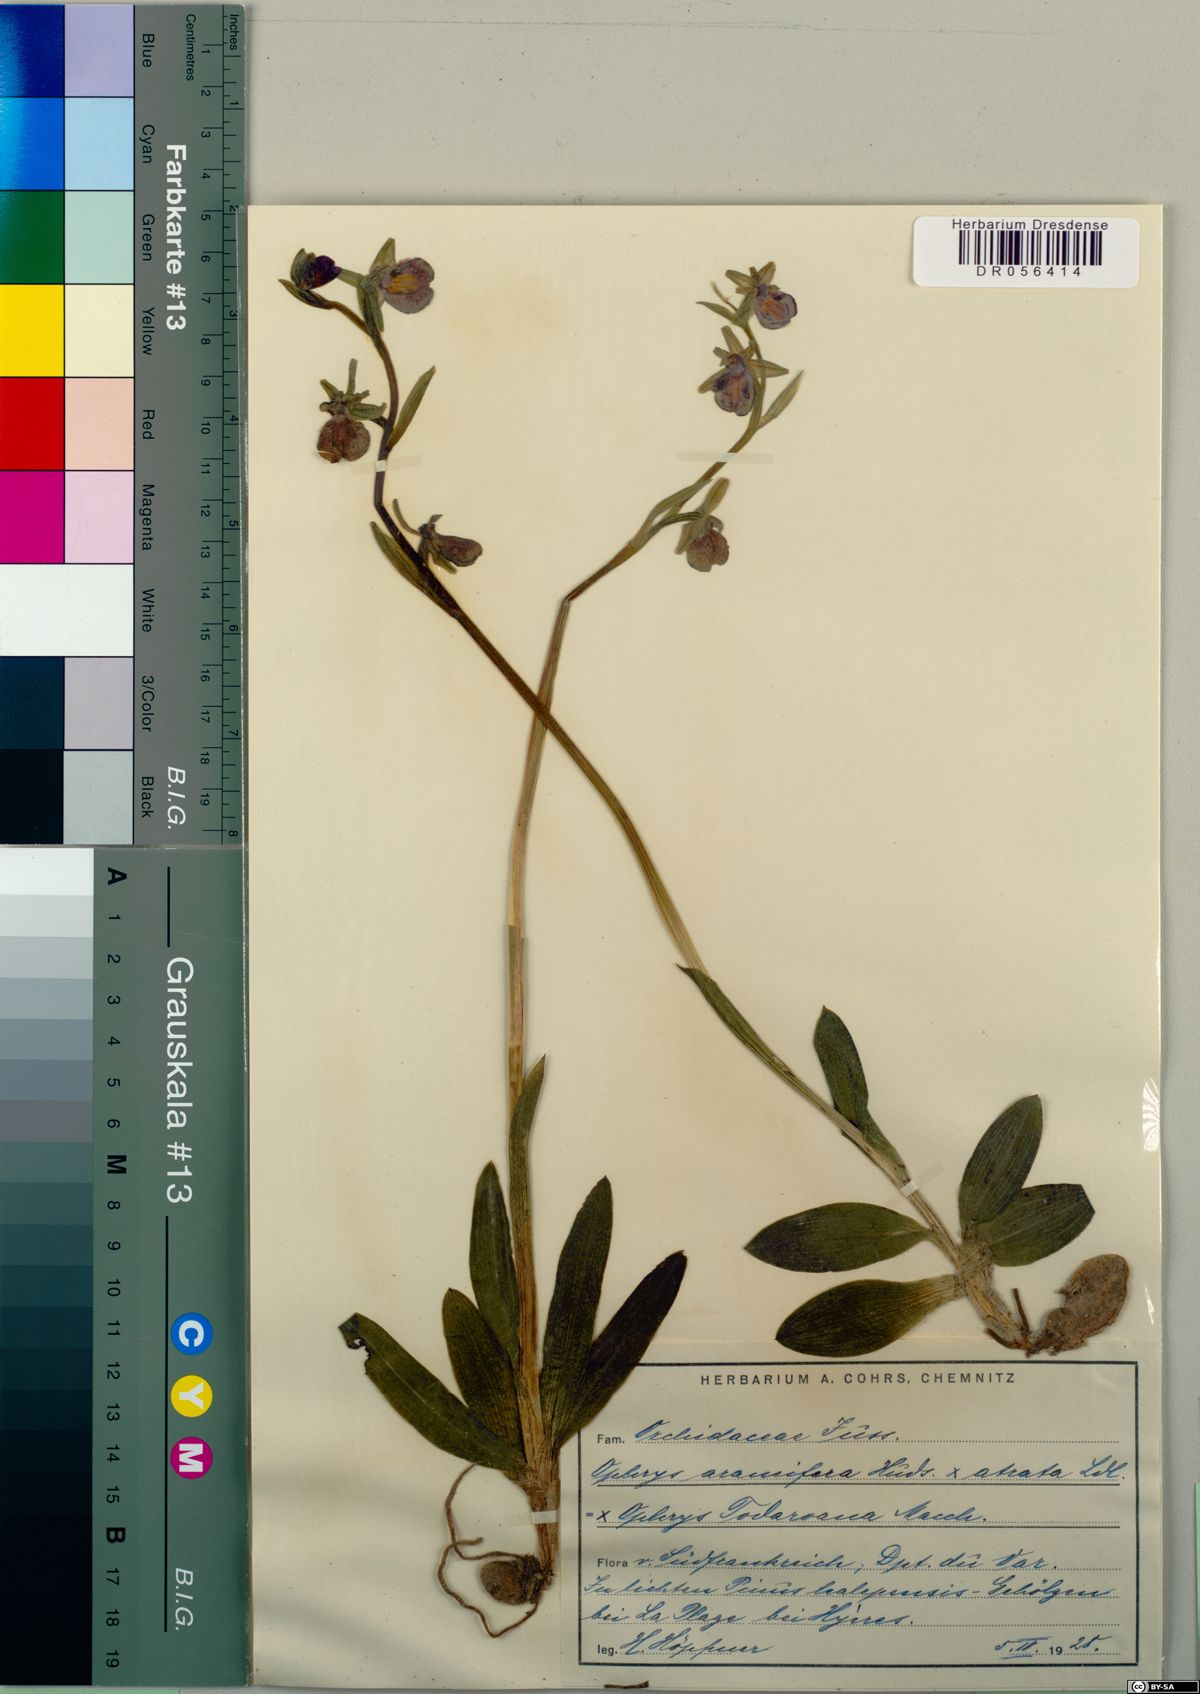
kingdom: Plantae
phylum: Tracheophyta
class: Liliopsida
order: Asparagales
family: Orchidaceae
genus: Ophrys
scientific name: Ophrys todaroana
